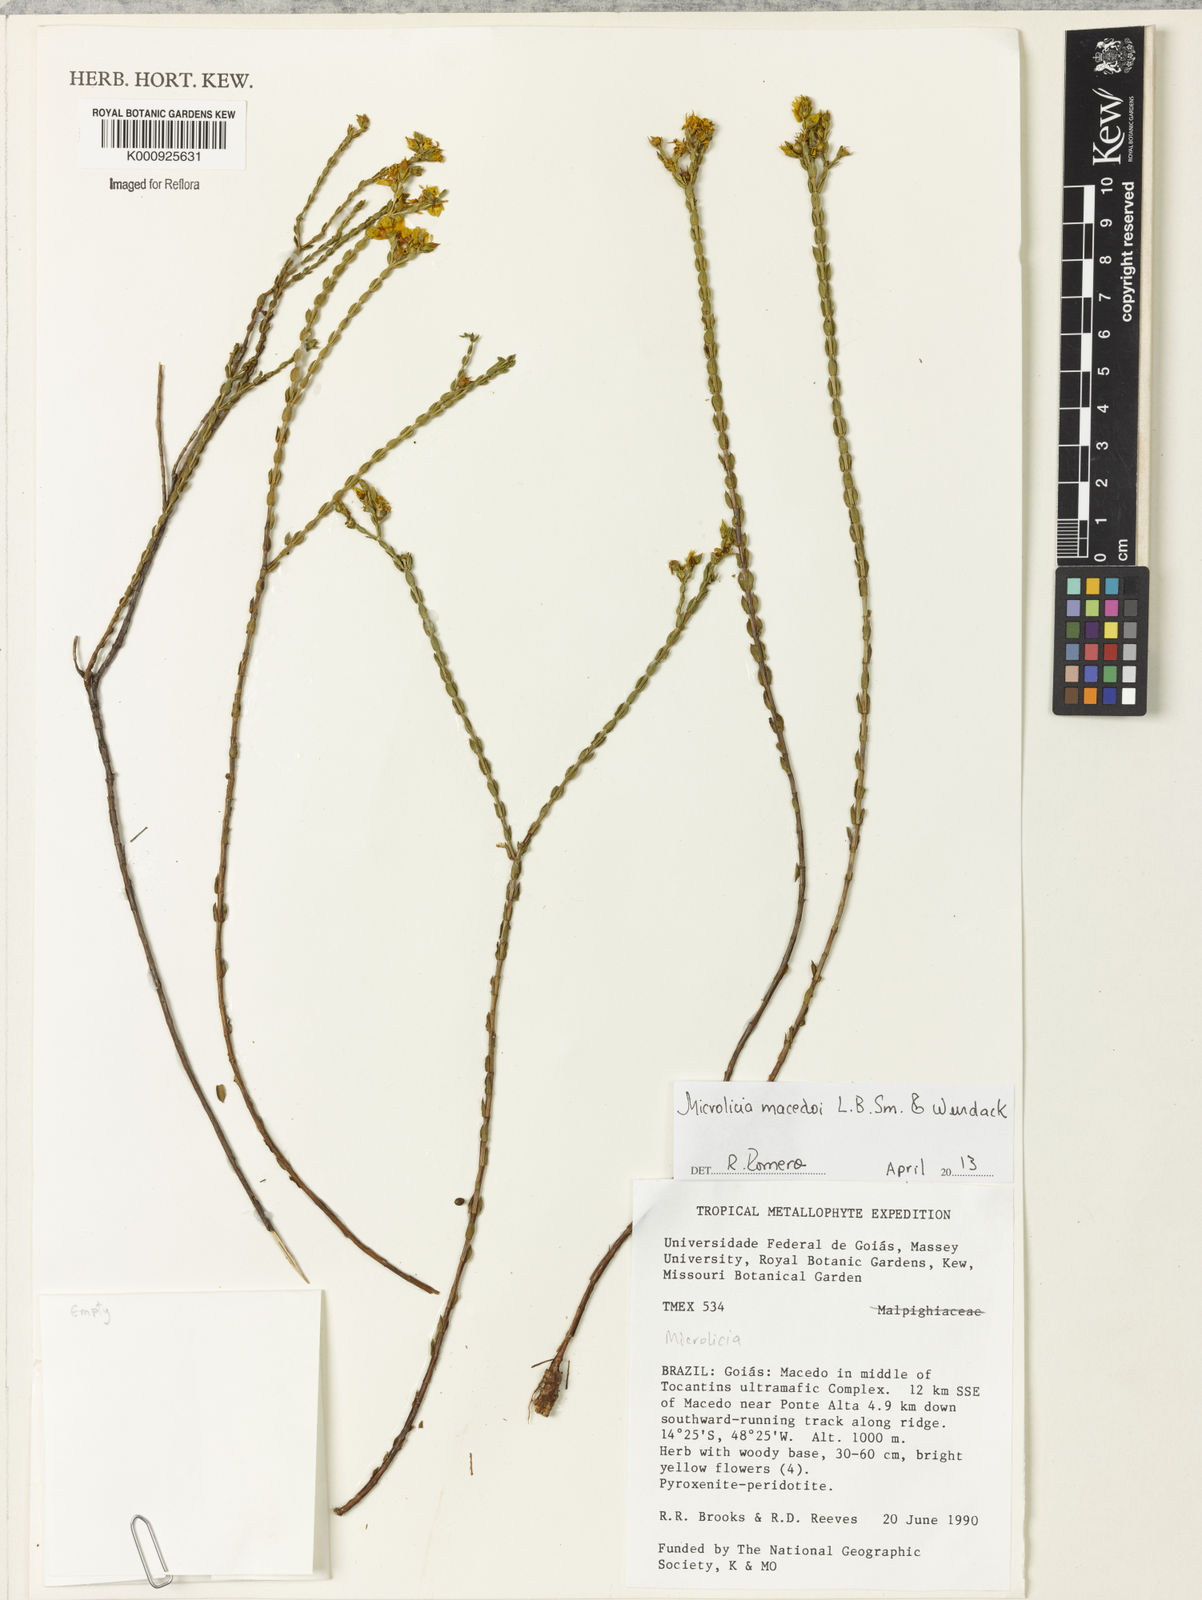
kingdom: Plantae
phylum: Tracheophyta
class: Magnoliopsida
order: Myrtales
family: Melastomataceae
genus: Microlicia
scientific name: Microlicia macedoi
